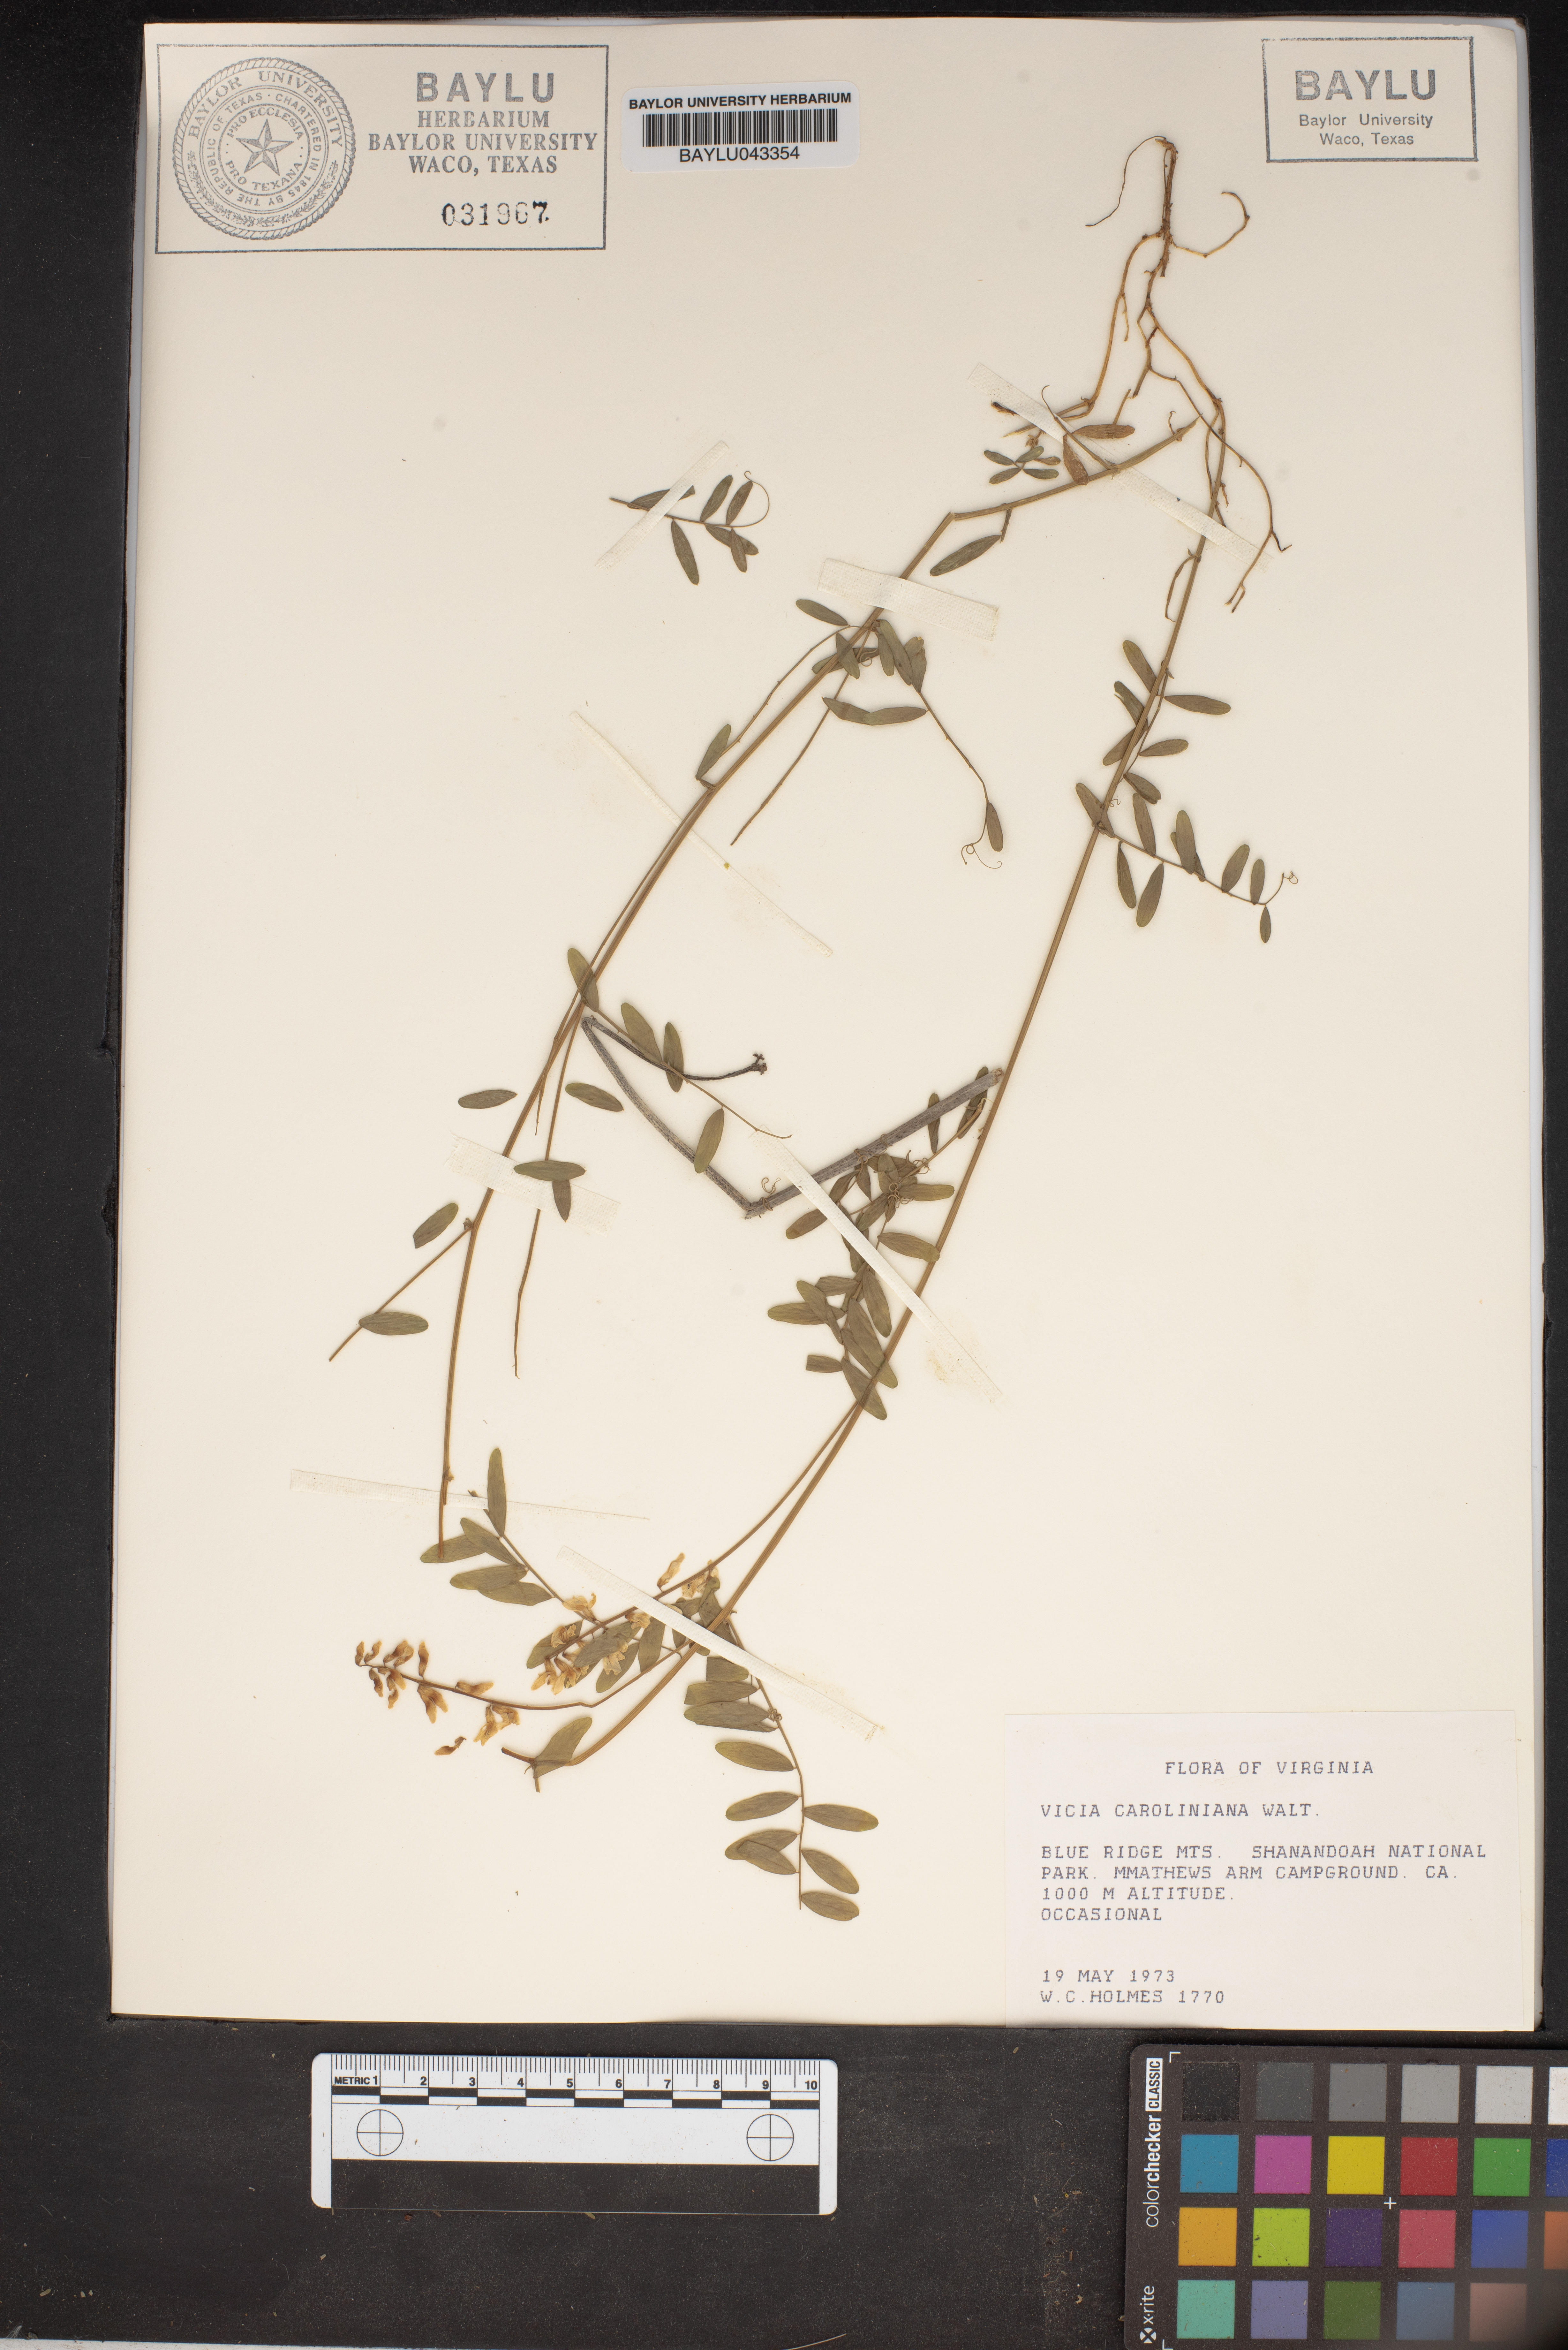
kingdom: Plantae
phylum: Tracheophyta
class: Magnoliopsida
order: Fabales
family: Fabaceae
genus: Vicia
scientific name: Vicia caroliniana
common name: Carolina vetch
